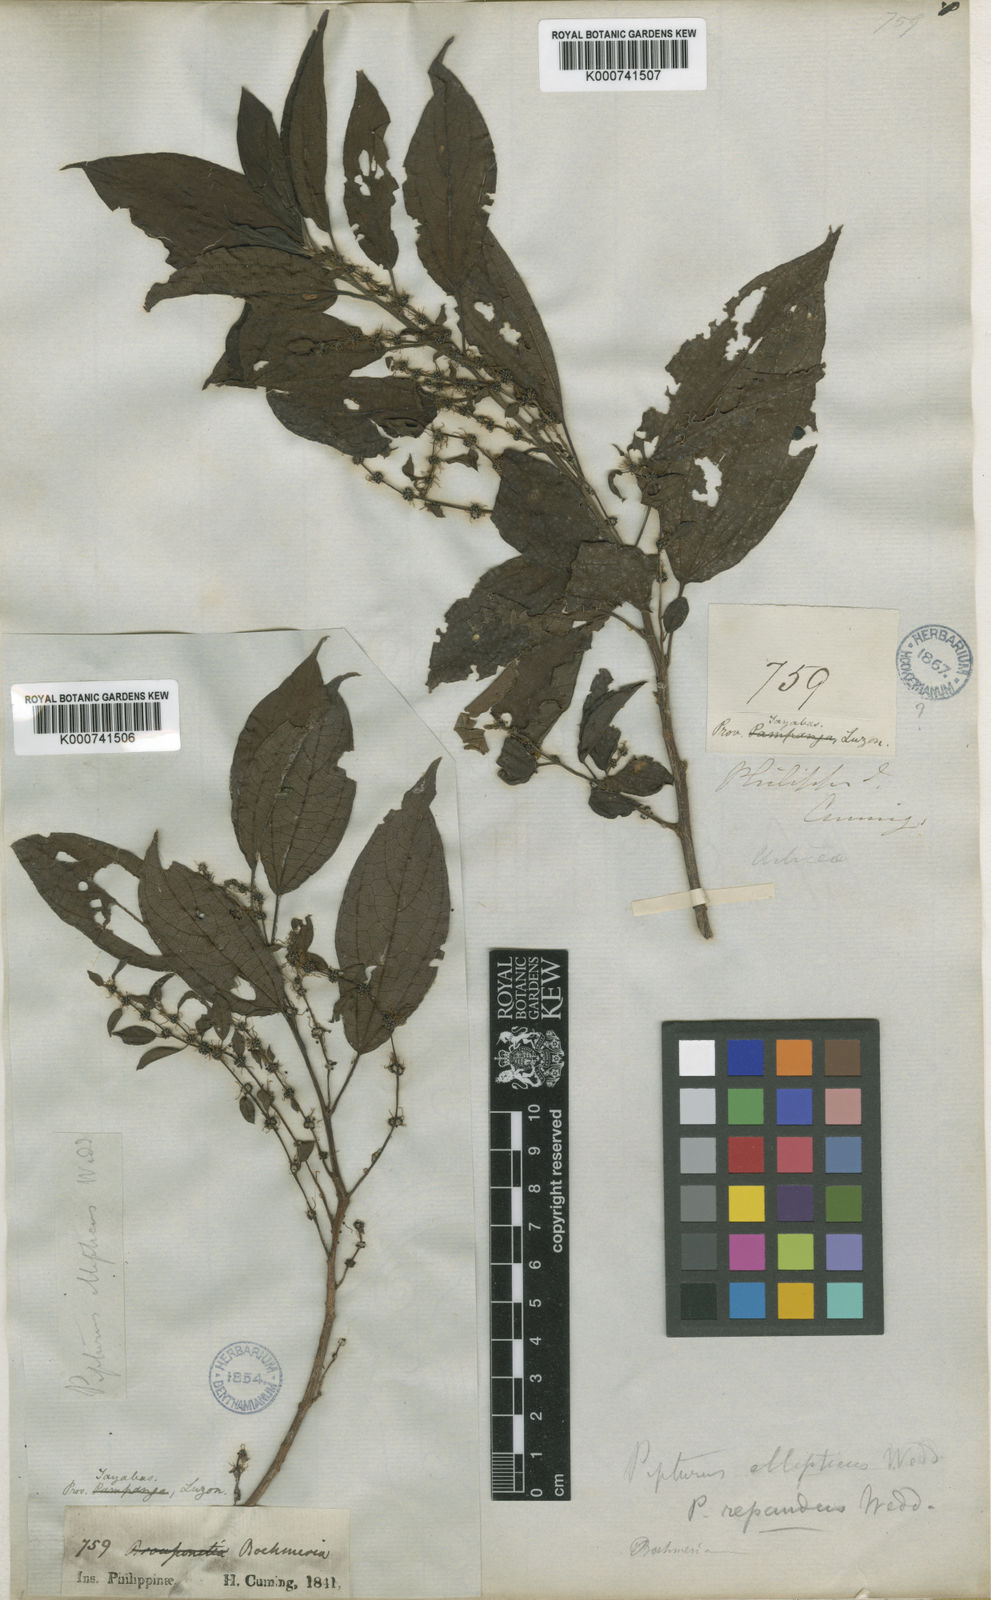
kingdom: Plantae
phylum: Tracheophyta
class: Magnoliopsida
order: Rosales
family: Urticaceae
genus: Nothocnide
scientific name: Nothocnide repanda
